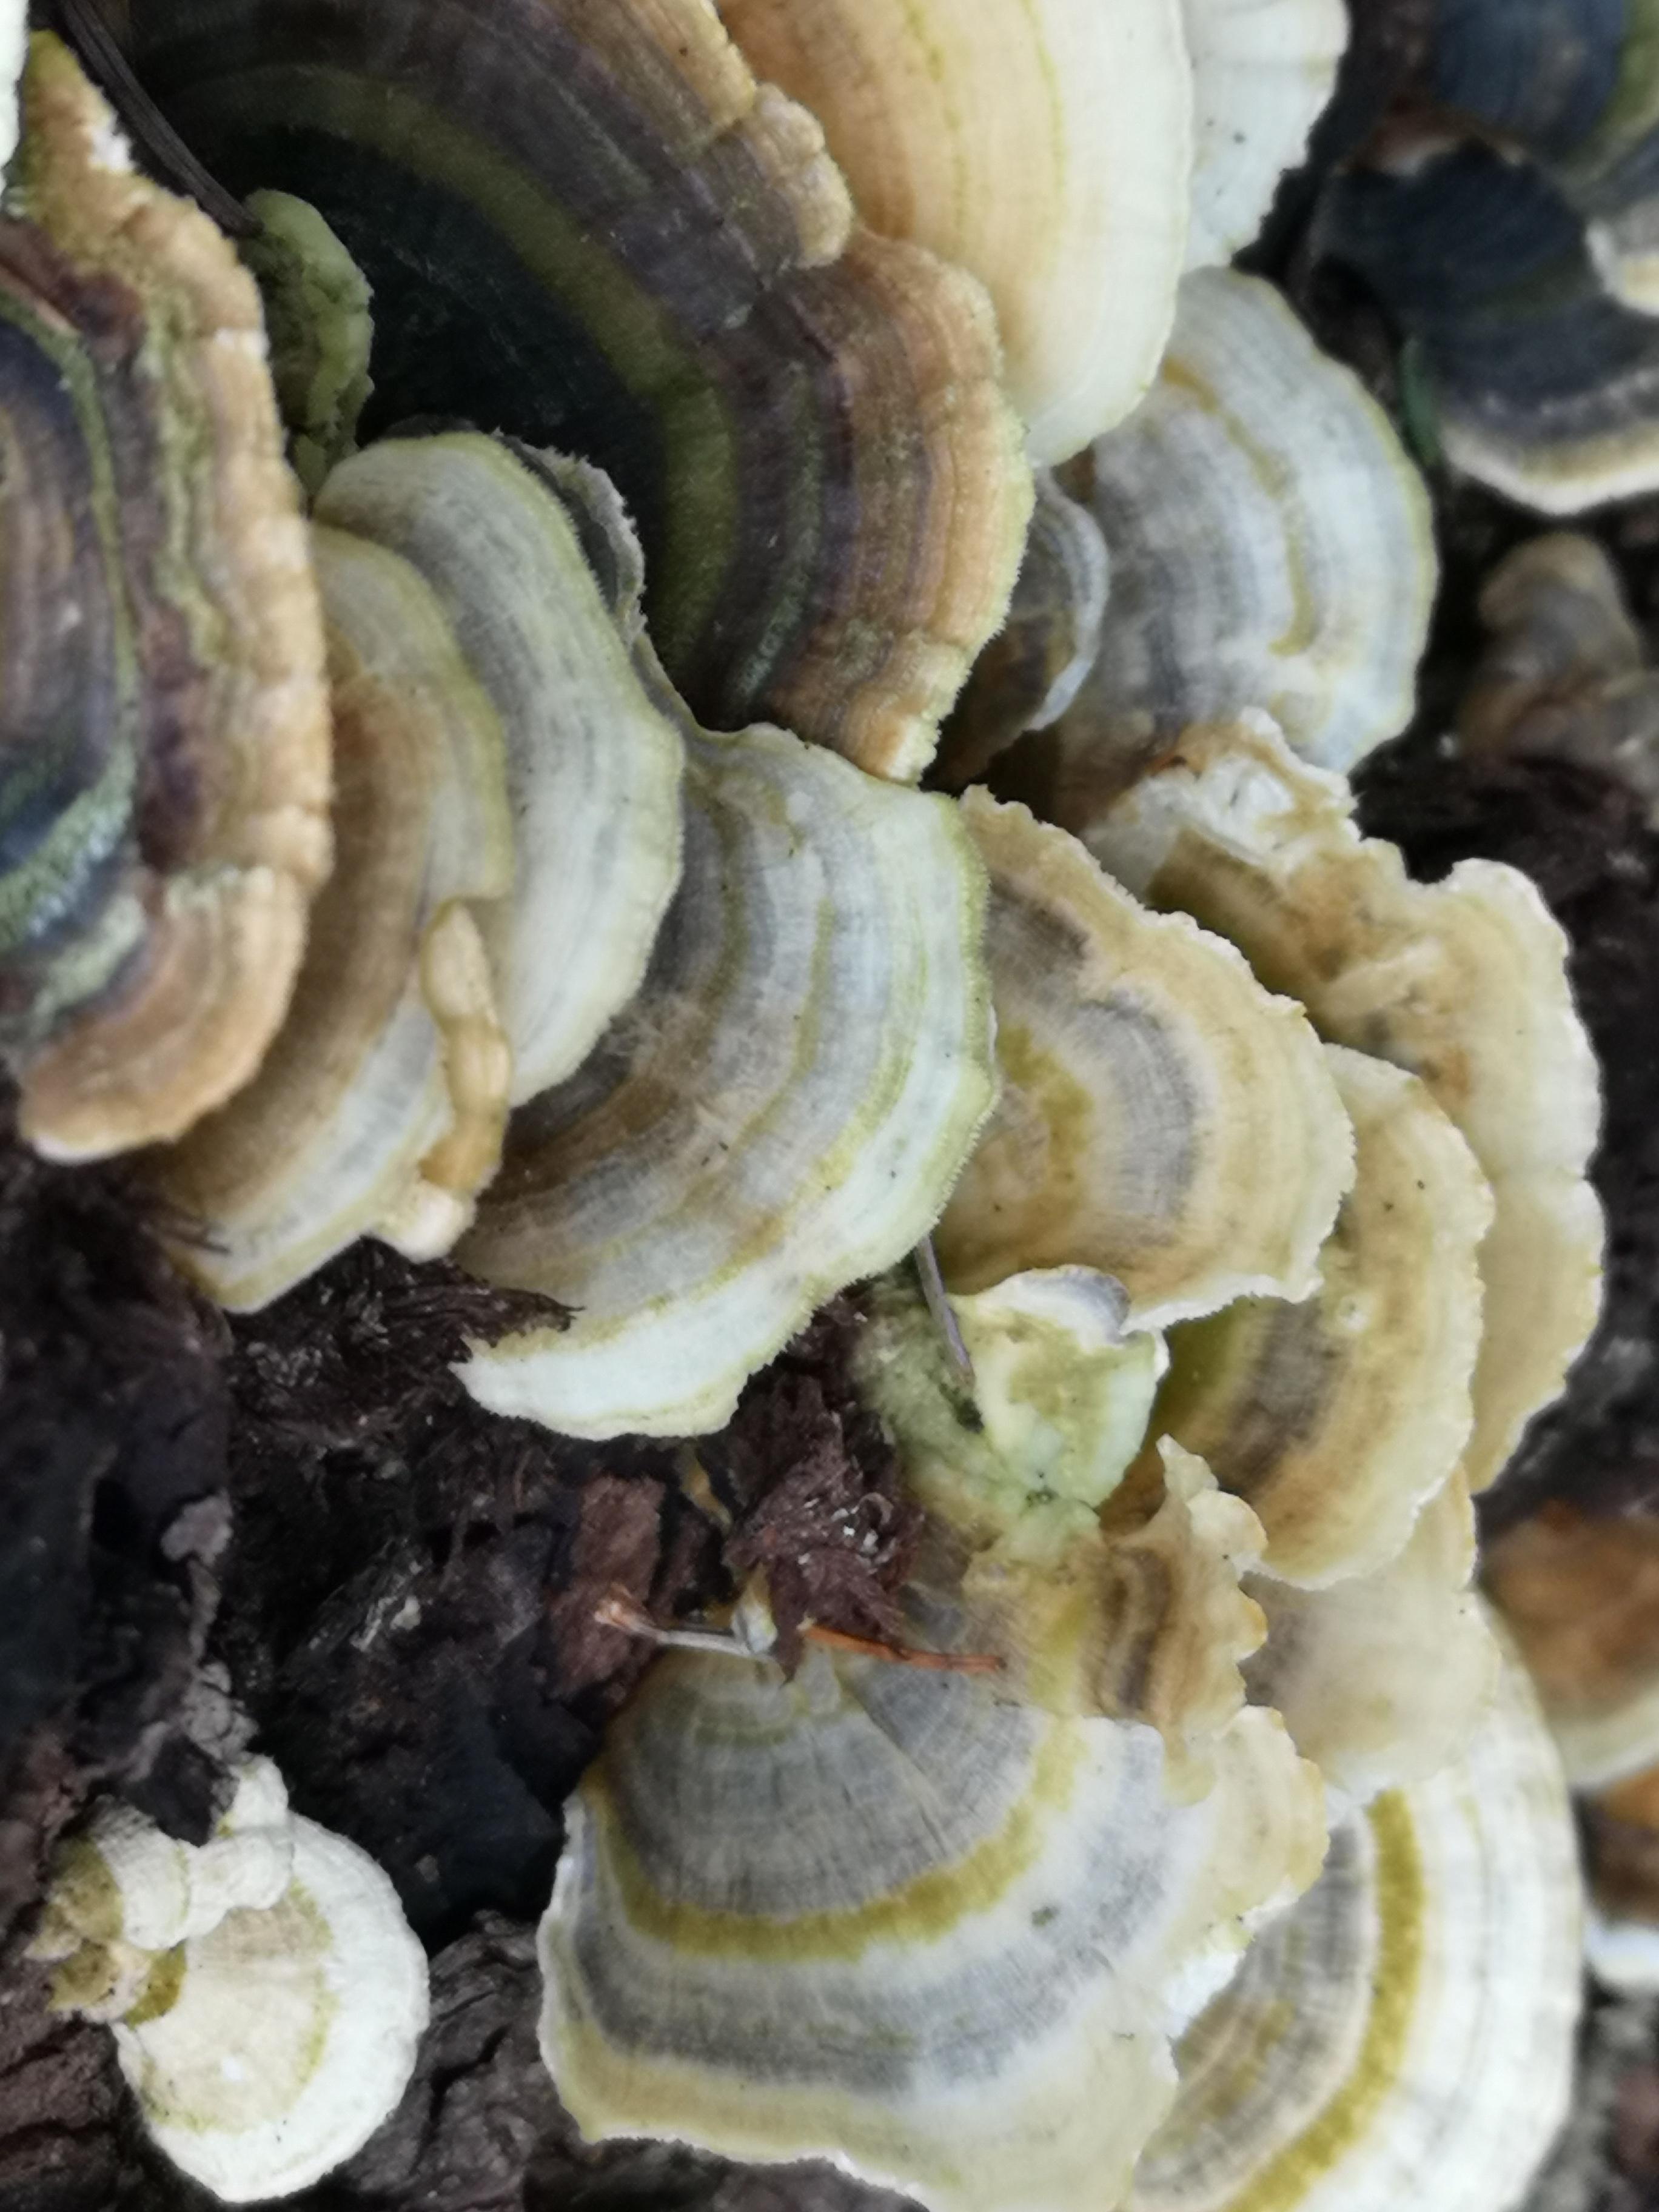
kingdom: Fungi
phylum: Basidiomycota
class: Agaricomycetes
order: Polyporales
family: Polyporaceae
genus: Trametes
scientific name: Trametes versicolor
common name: broget læderporesvamp
